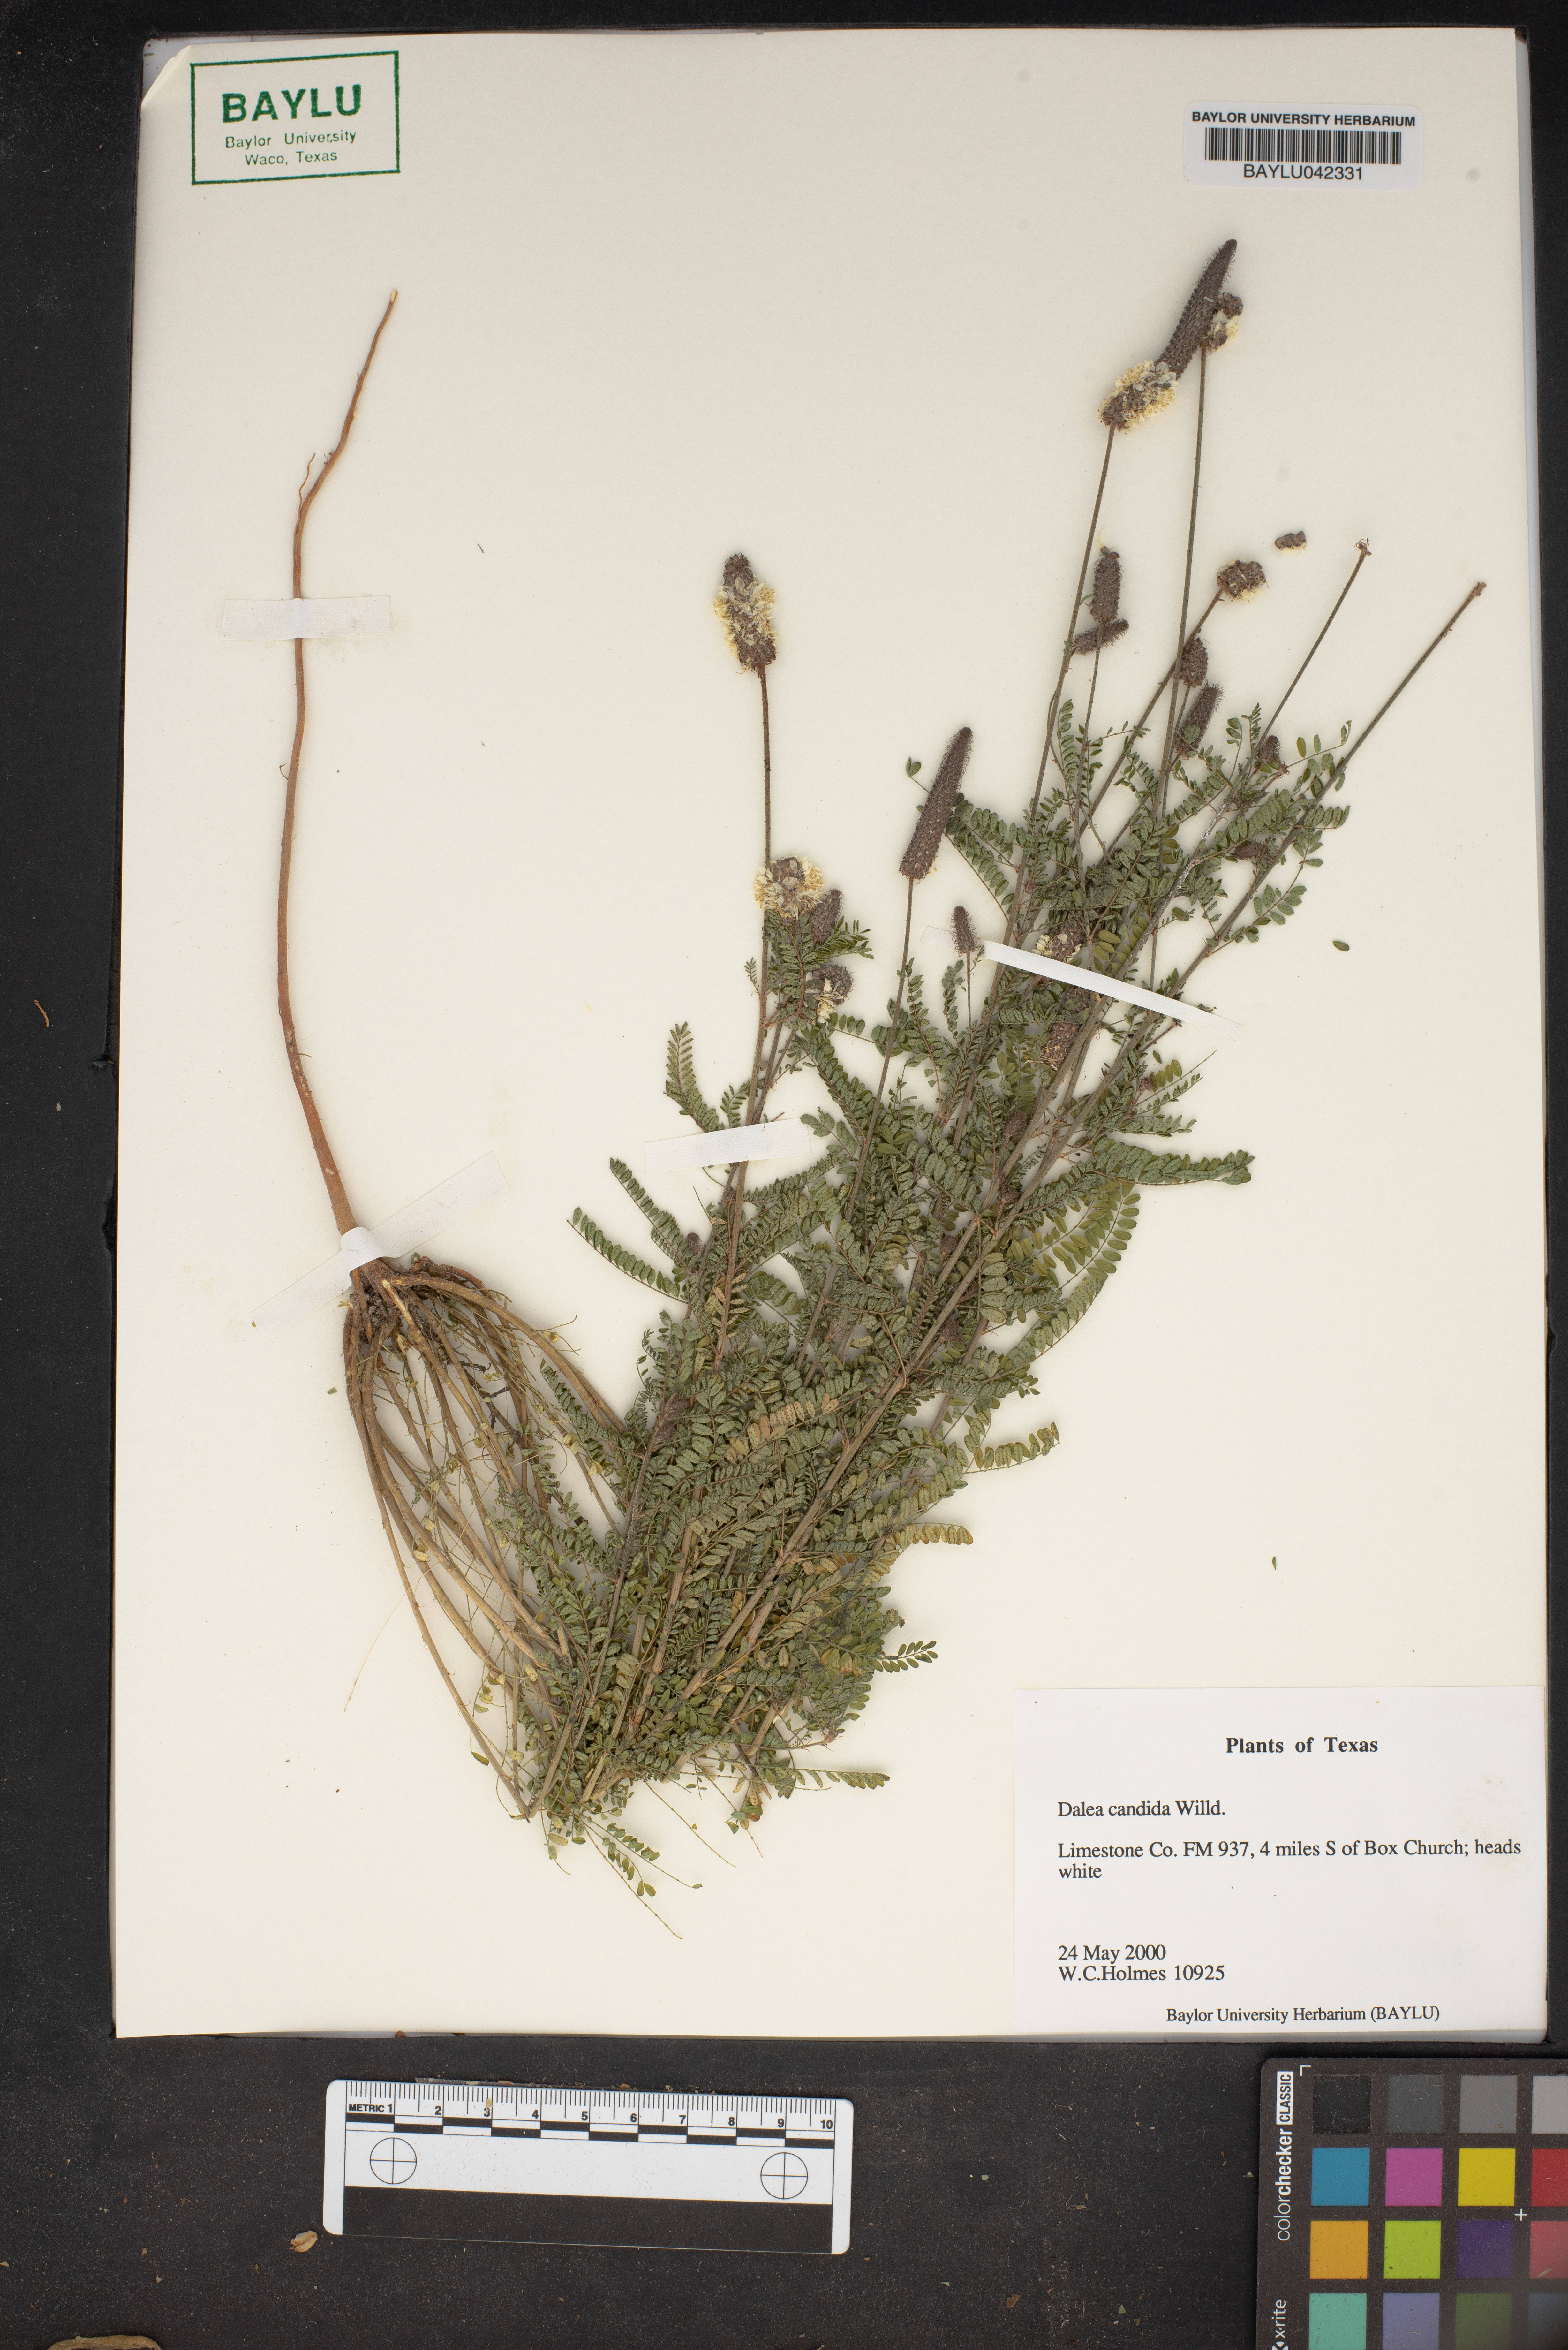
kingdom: Plantae
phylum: Tracheophyta
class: Magnoliopsida
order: Fabales
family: Fabaceae
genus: Dalea
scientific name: Dalea candida
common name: White prairie-clover
